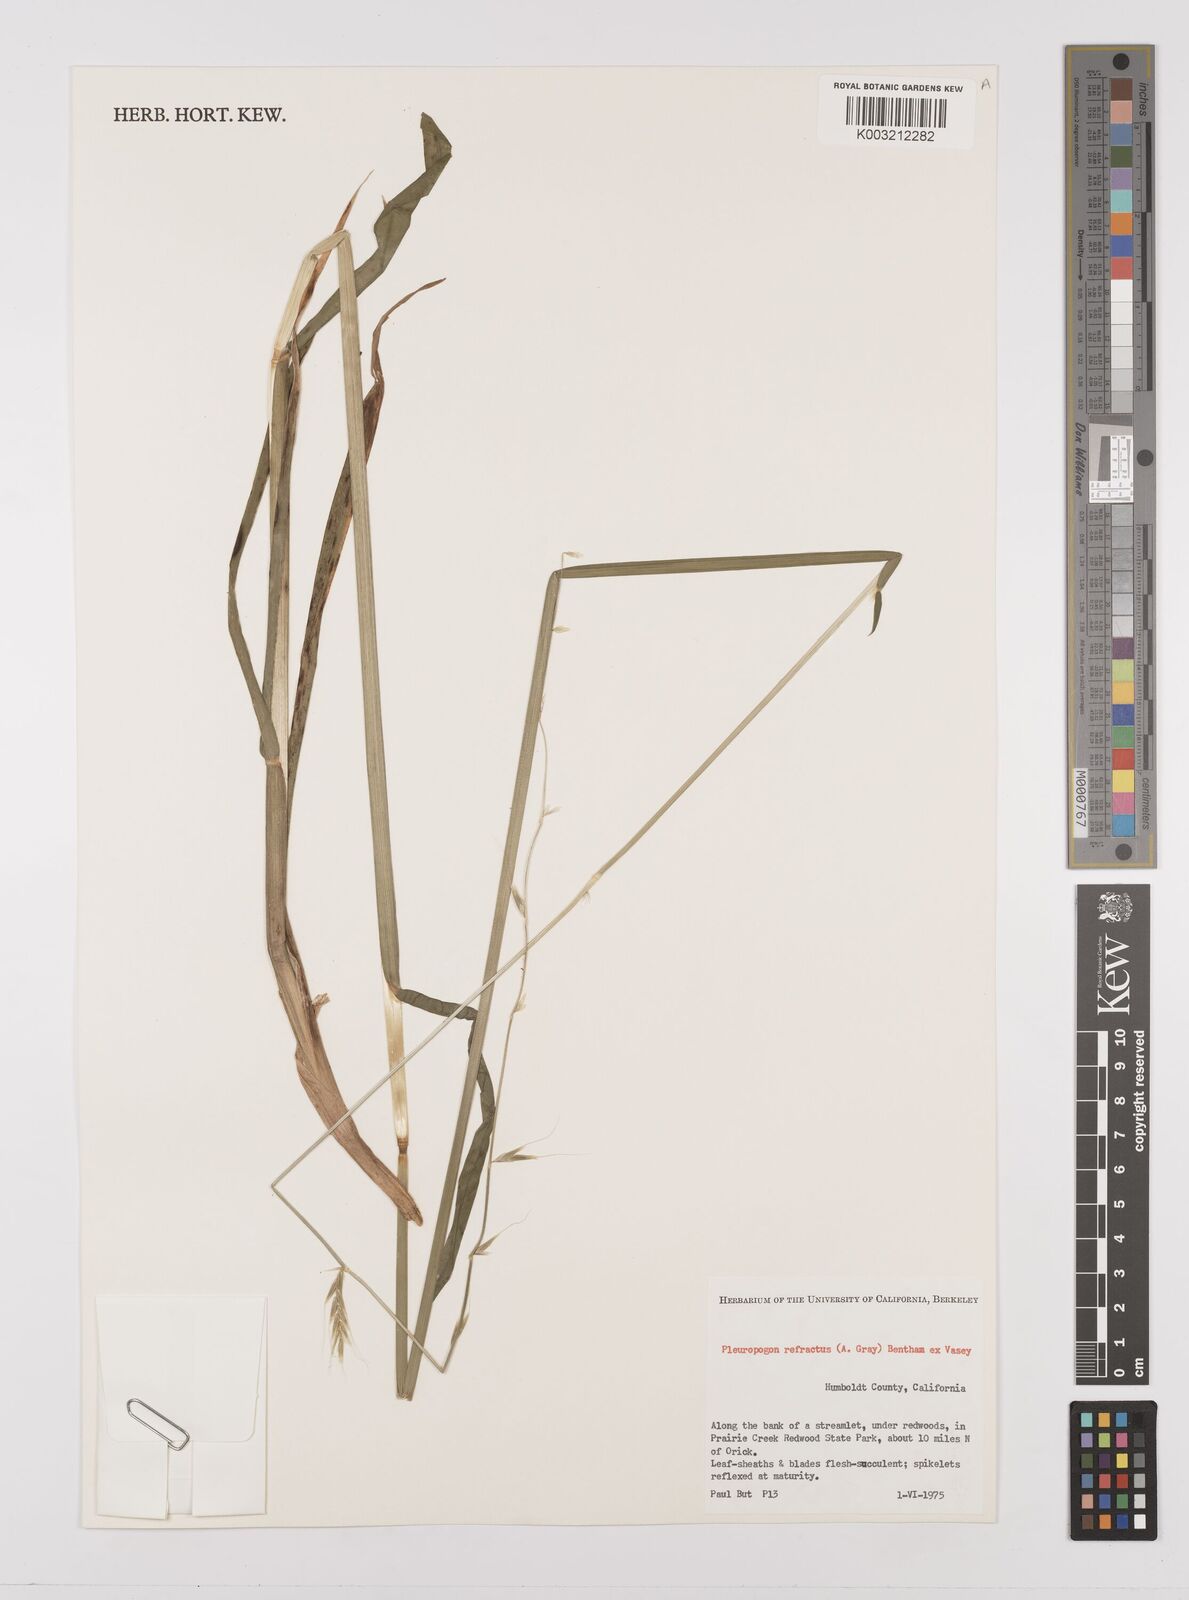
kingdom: Plantae
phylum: Tracheophyta
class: Liliopsida
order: Poales
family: Poaceae
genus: Pleuropogon
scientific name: Pleuropogon refractus
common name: Nodding false semaphoregrass
